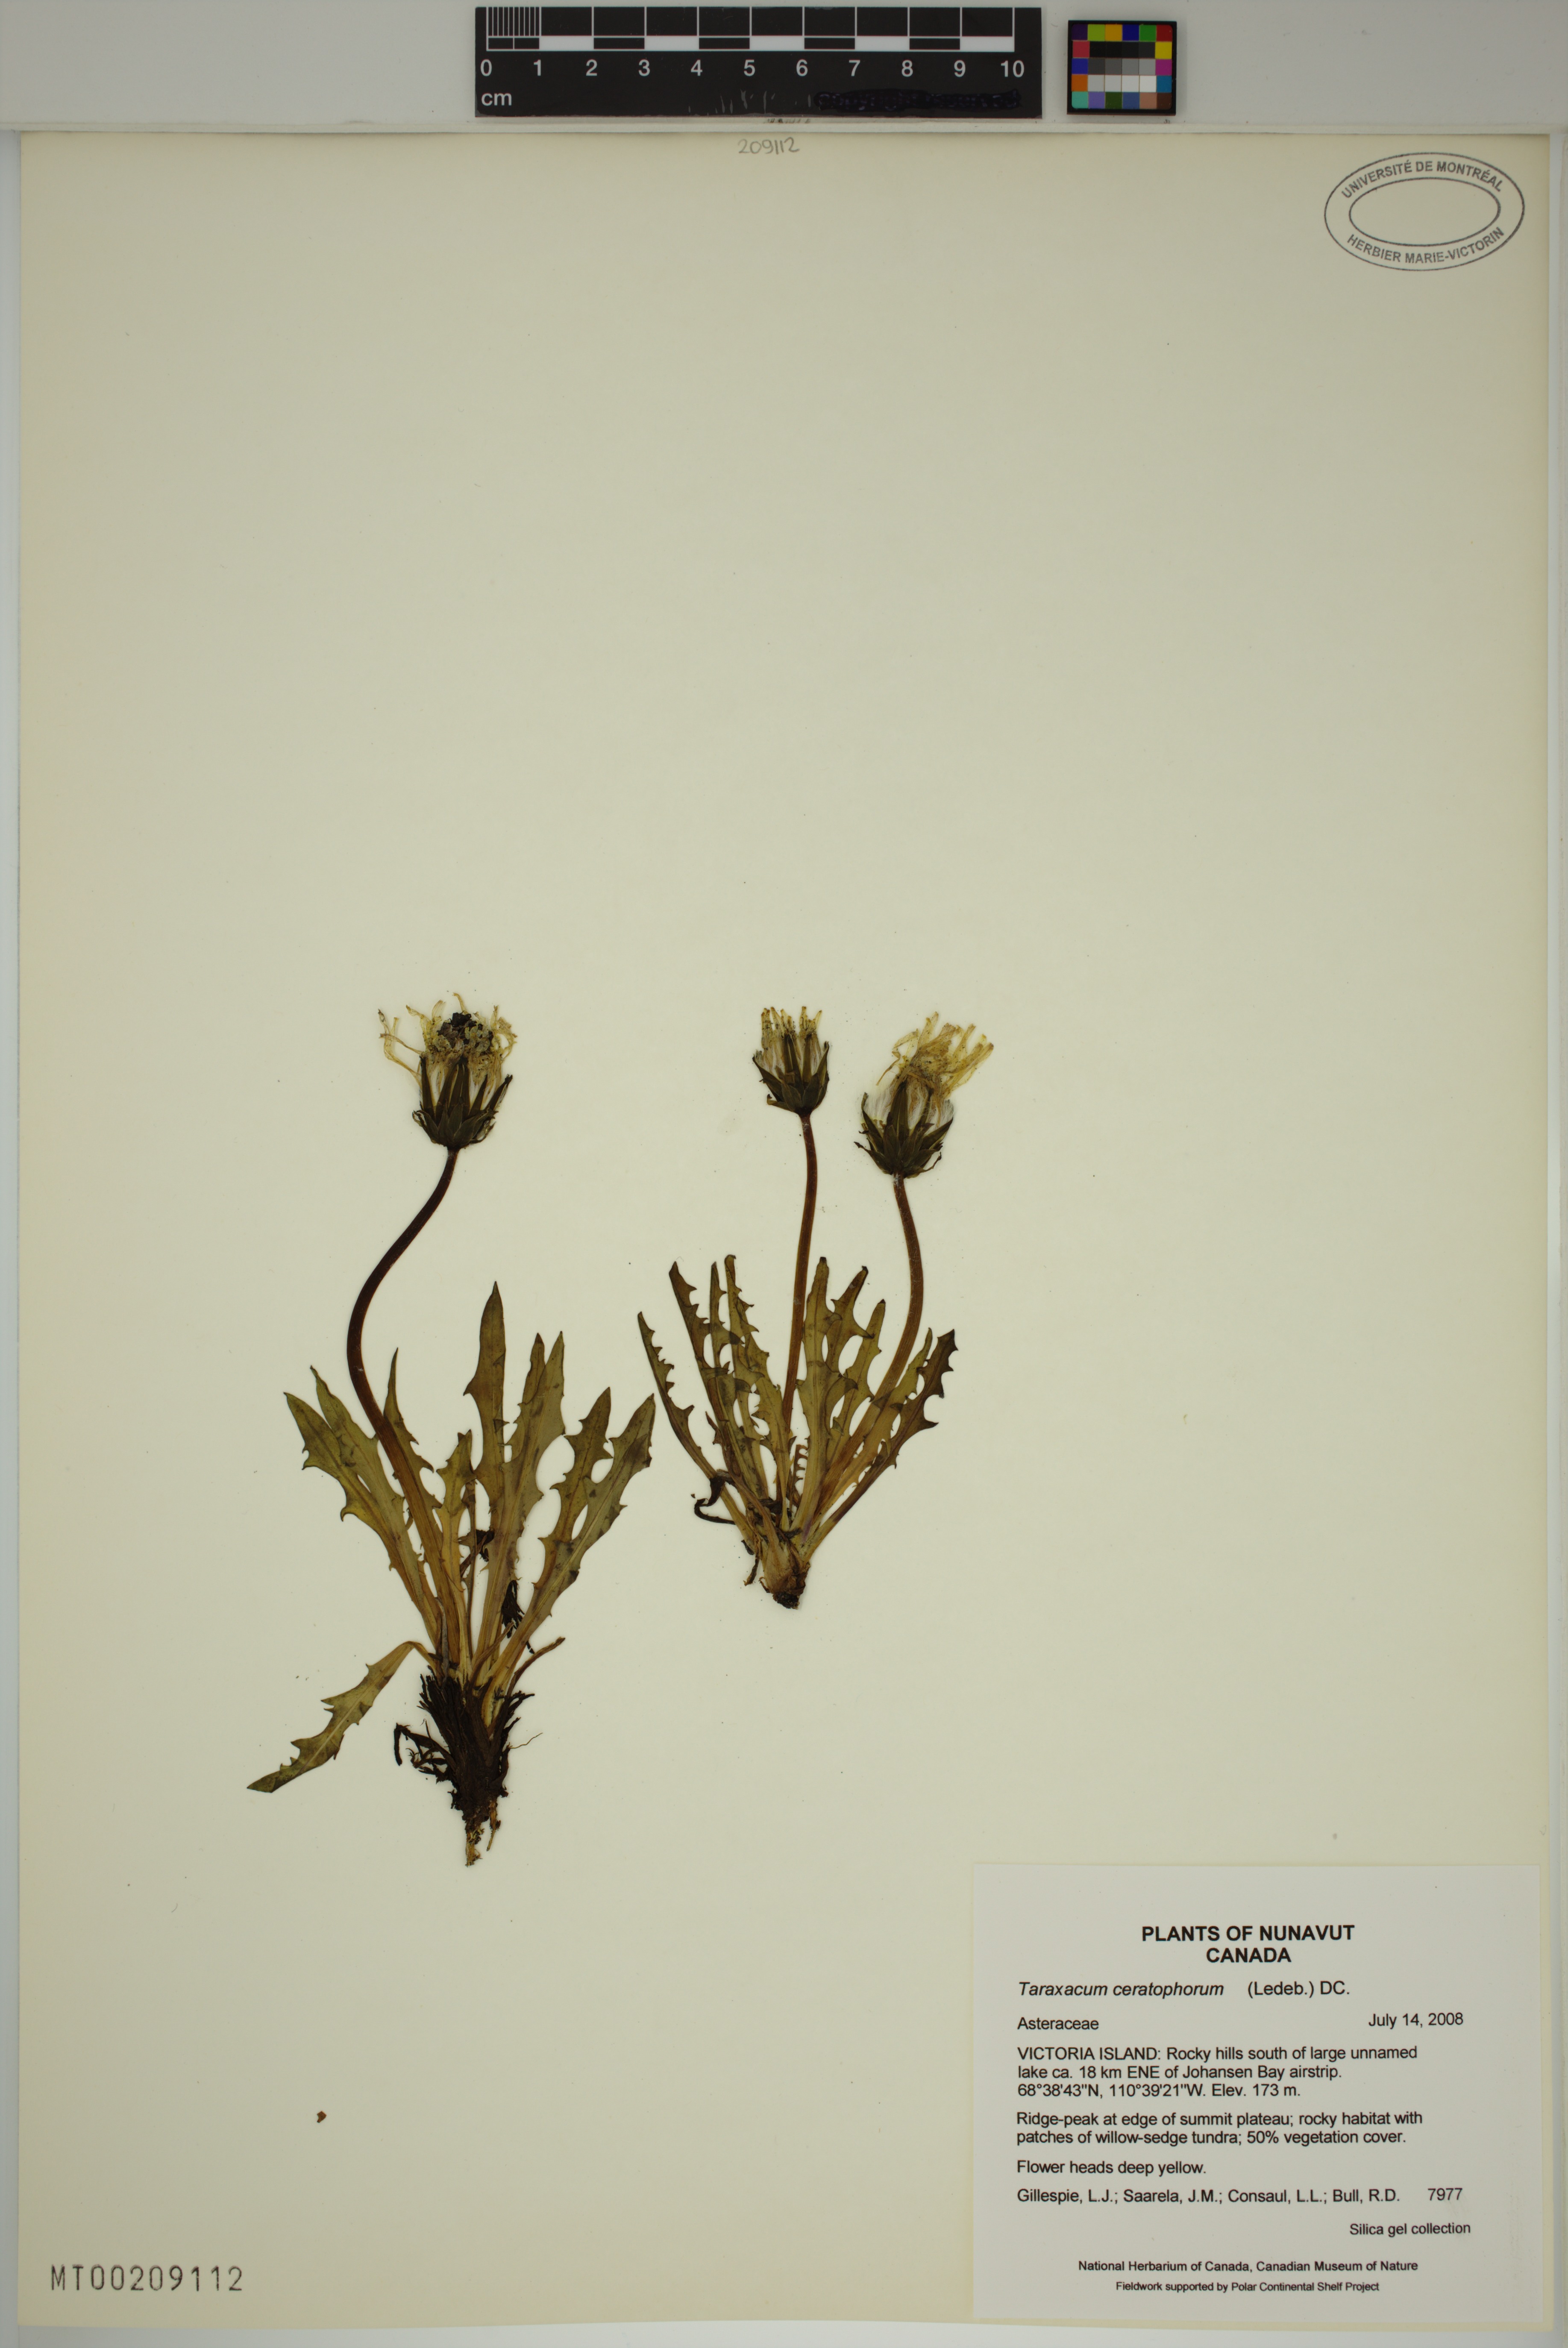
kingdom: Plantae
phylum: Tracheophyta
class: Magnoliopsida
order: Asterales
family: Asteraceae
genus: Taraxacum
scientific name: Taraxacum ceratophorum
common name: Horn-bearing dandelion
